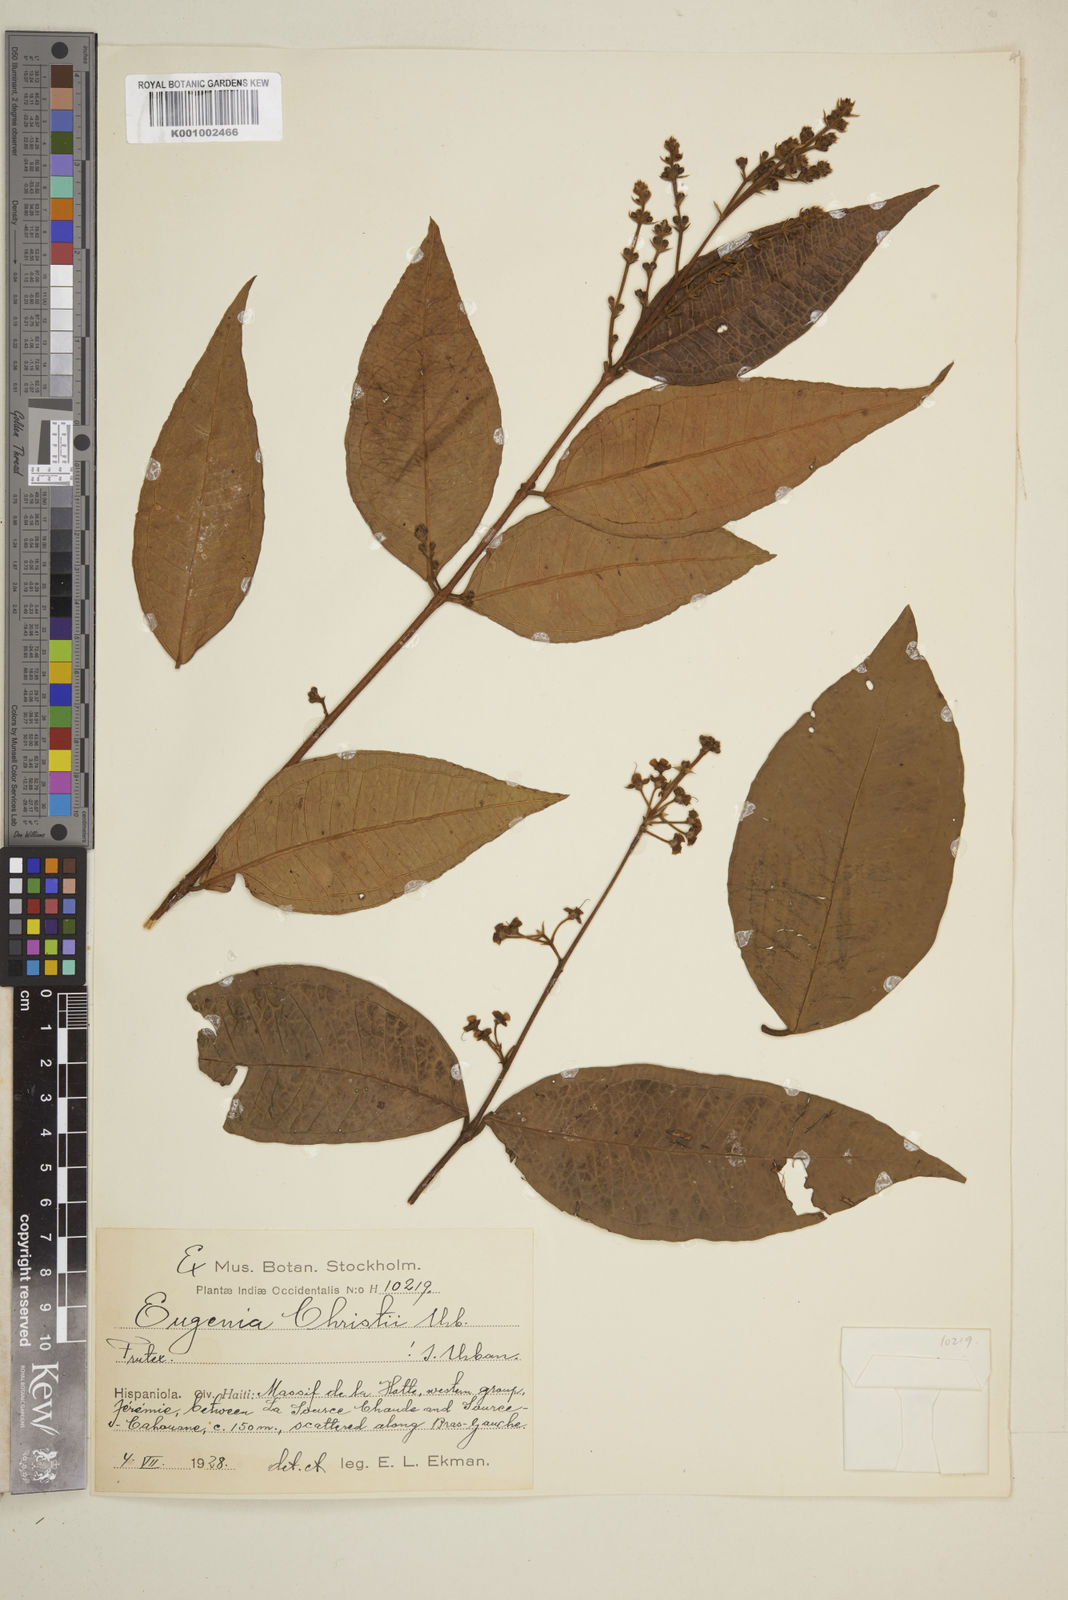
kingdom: Plantae
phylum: Tracheophyta
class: Magnoliopsida
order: Myrtales
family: Myrtaceae
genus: Eugenia
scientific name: Eugenia christii
